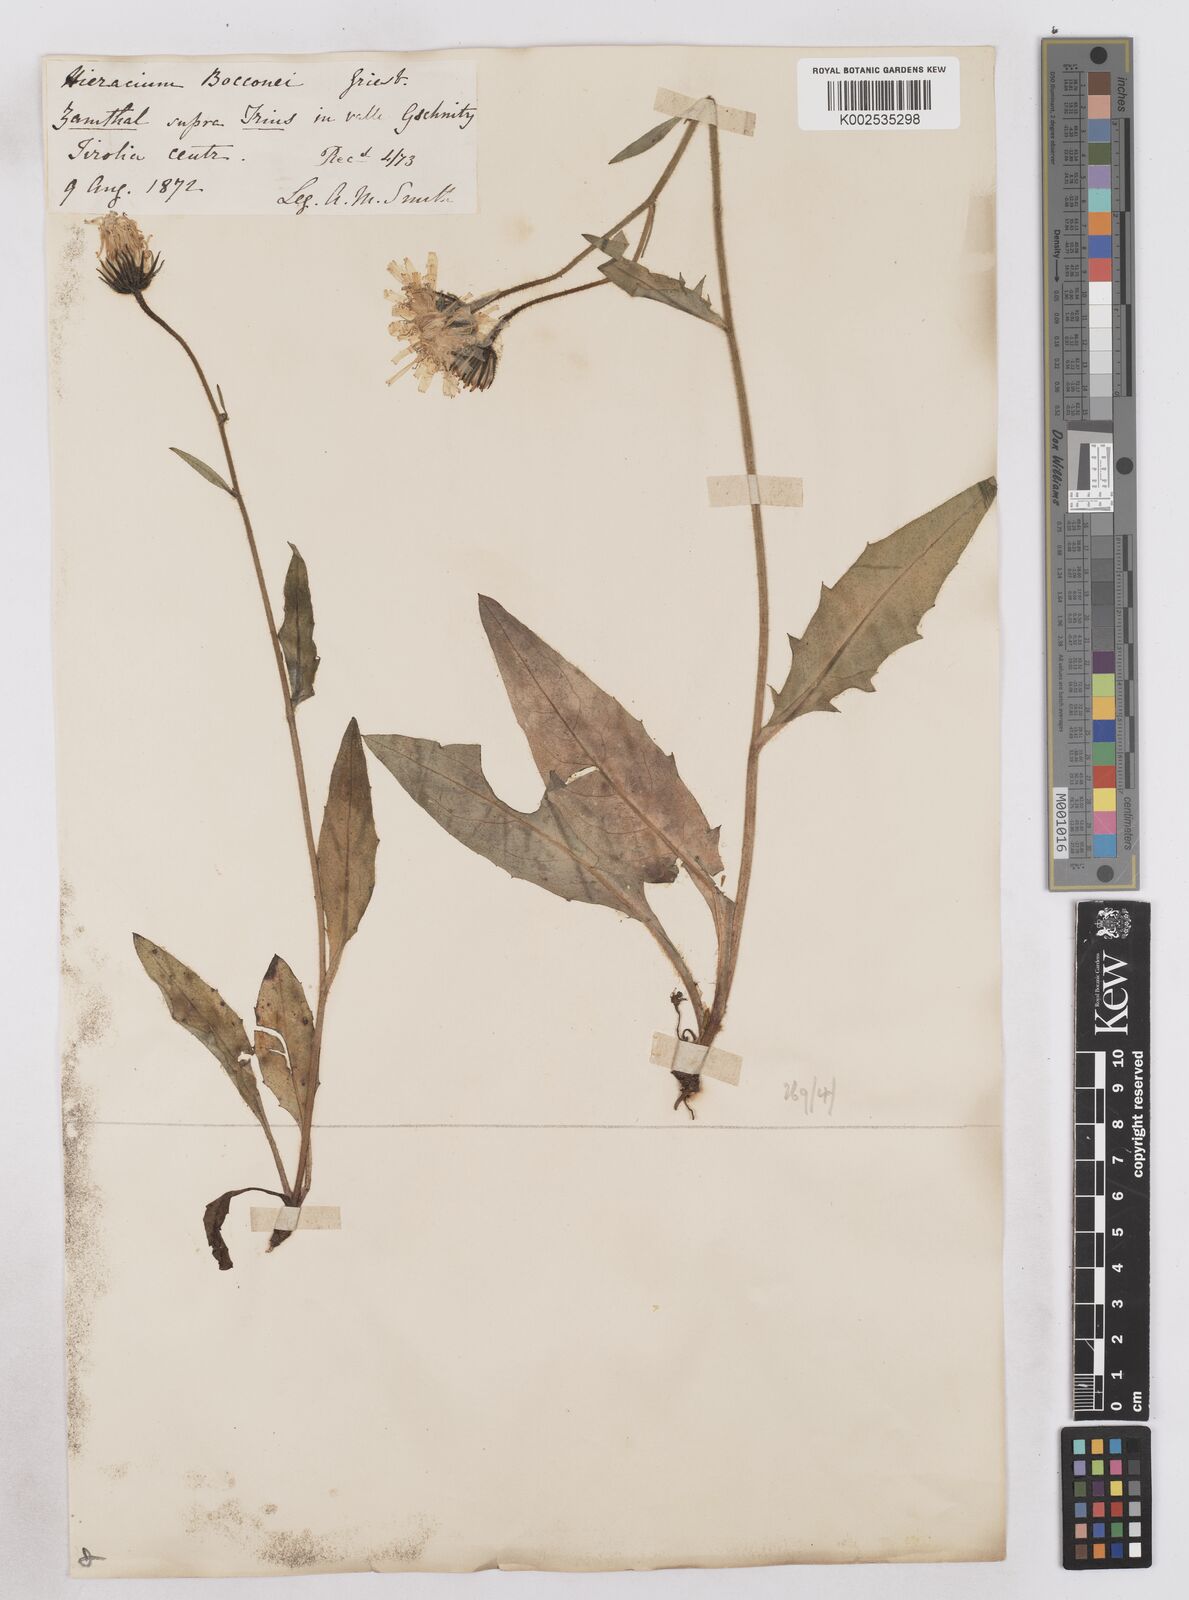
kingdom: Plantae
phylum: Tracheophyta
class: Magnoliopsida
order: Asterales
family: Asteraceae
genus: Hieracium
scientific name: Hieracium kuekenthalianum
